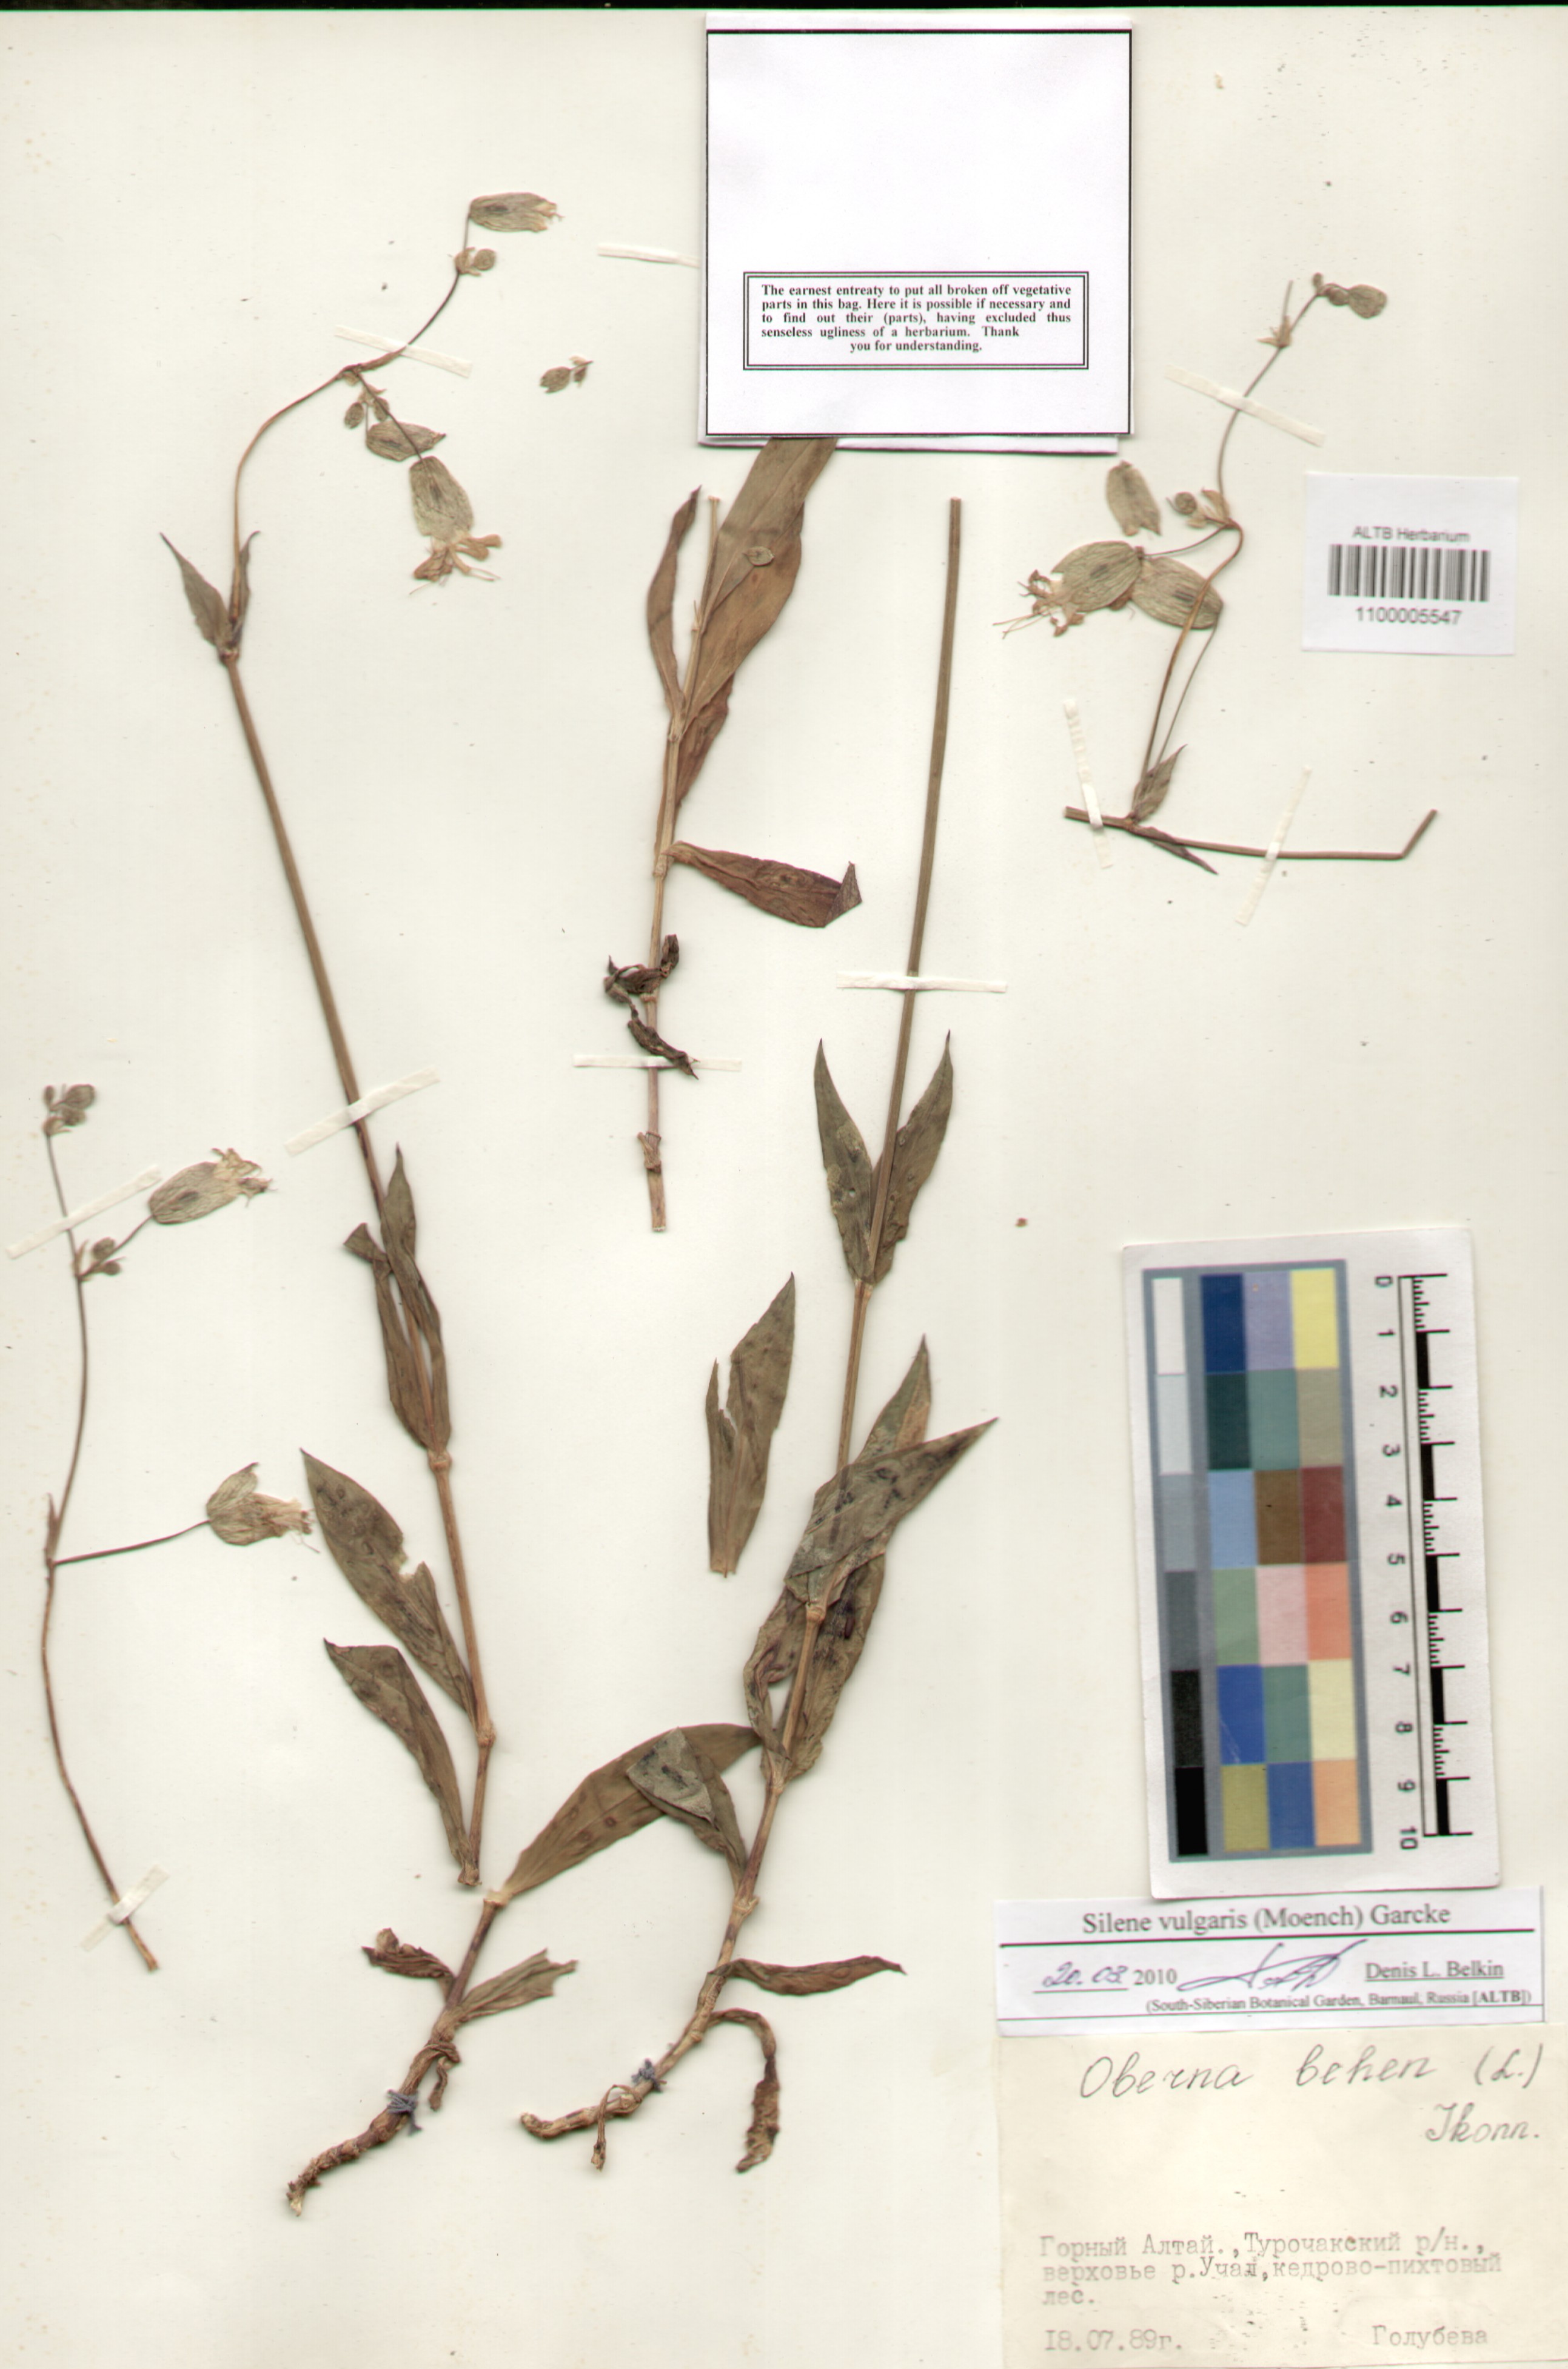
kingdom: Plantae
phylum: Tracheophyta
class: Magnoliopsida
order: Caryophyllales
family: Caryophyllaceae
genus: Silene
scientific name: Silene vulgaris
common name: Bladder campion
